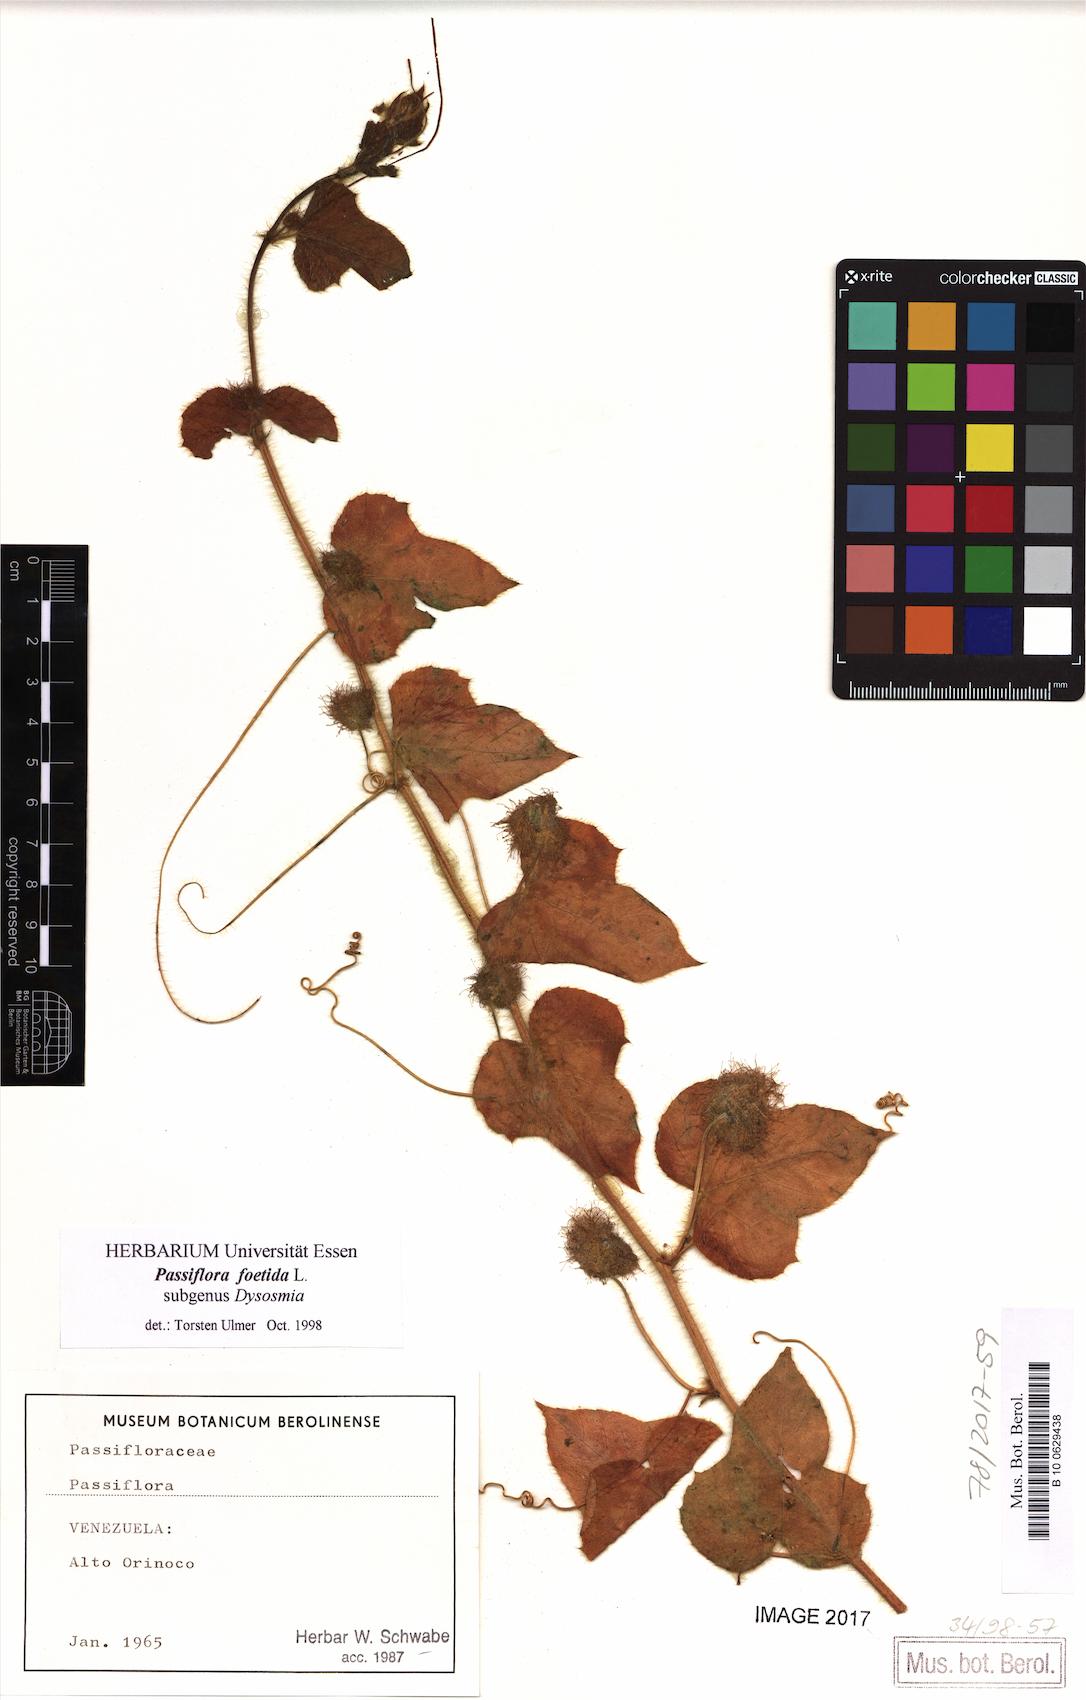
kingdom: Plantae
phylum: Tracheophyta
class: Magnoliopsida
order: Malpighiales
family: Passifloraceae
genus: Passiflora
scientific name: Passiflora foetida
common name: Fetid passionflower
